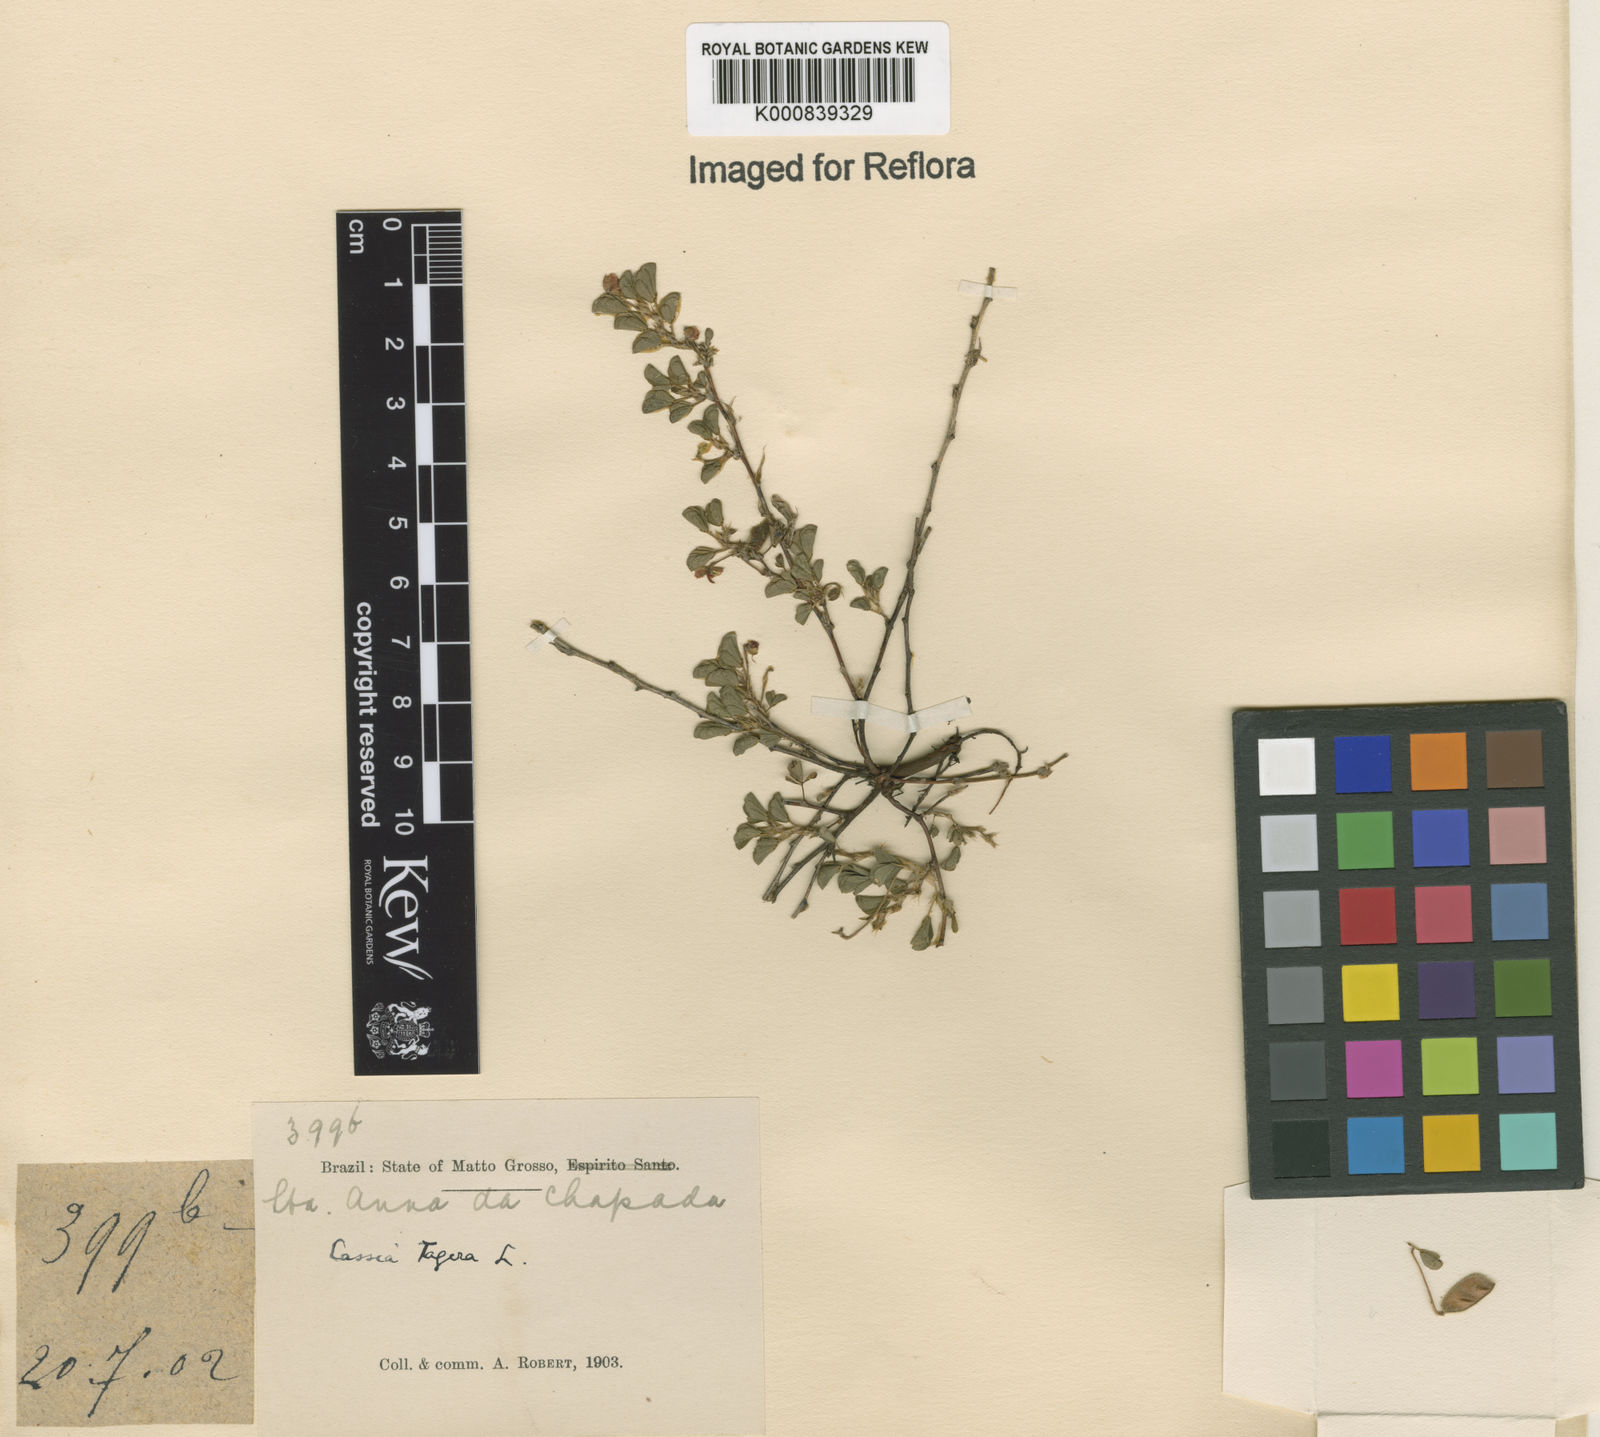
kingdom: Plantae
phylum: Tracheophyta
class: Magnoliopsida
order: Fabales
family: Fabaceae
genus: Chamaecrista
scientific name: Chamaecrista kunthiana
